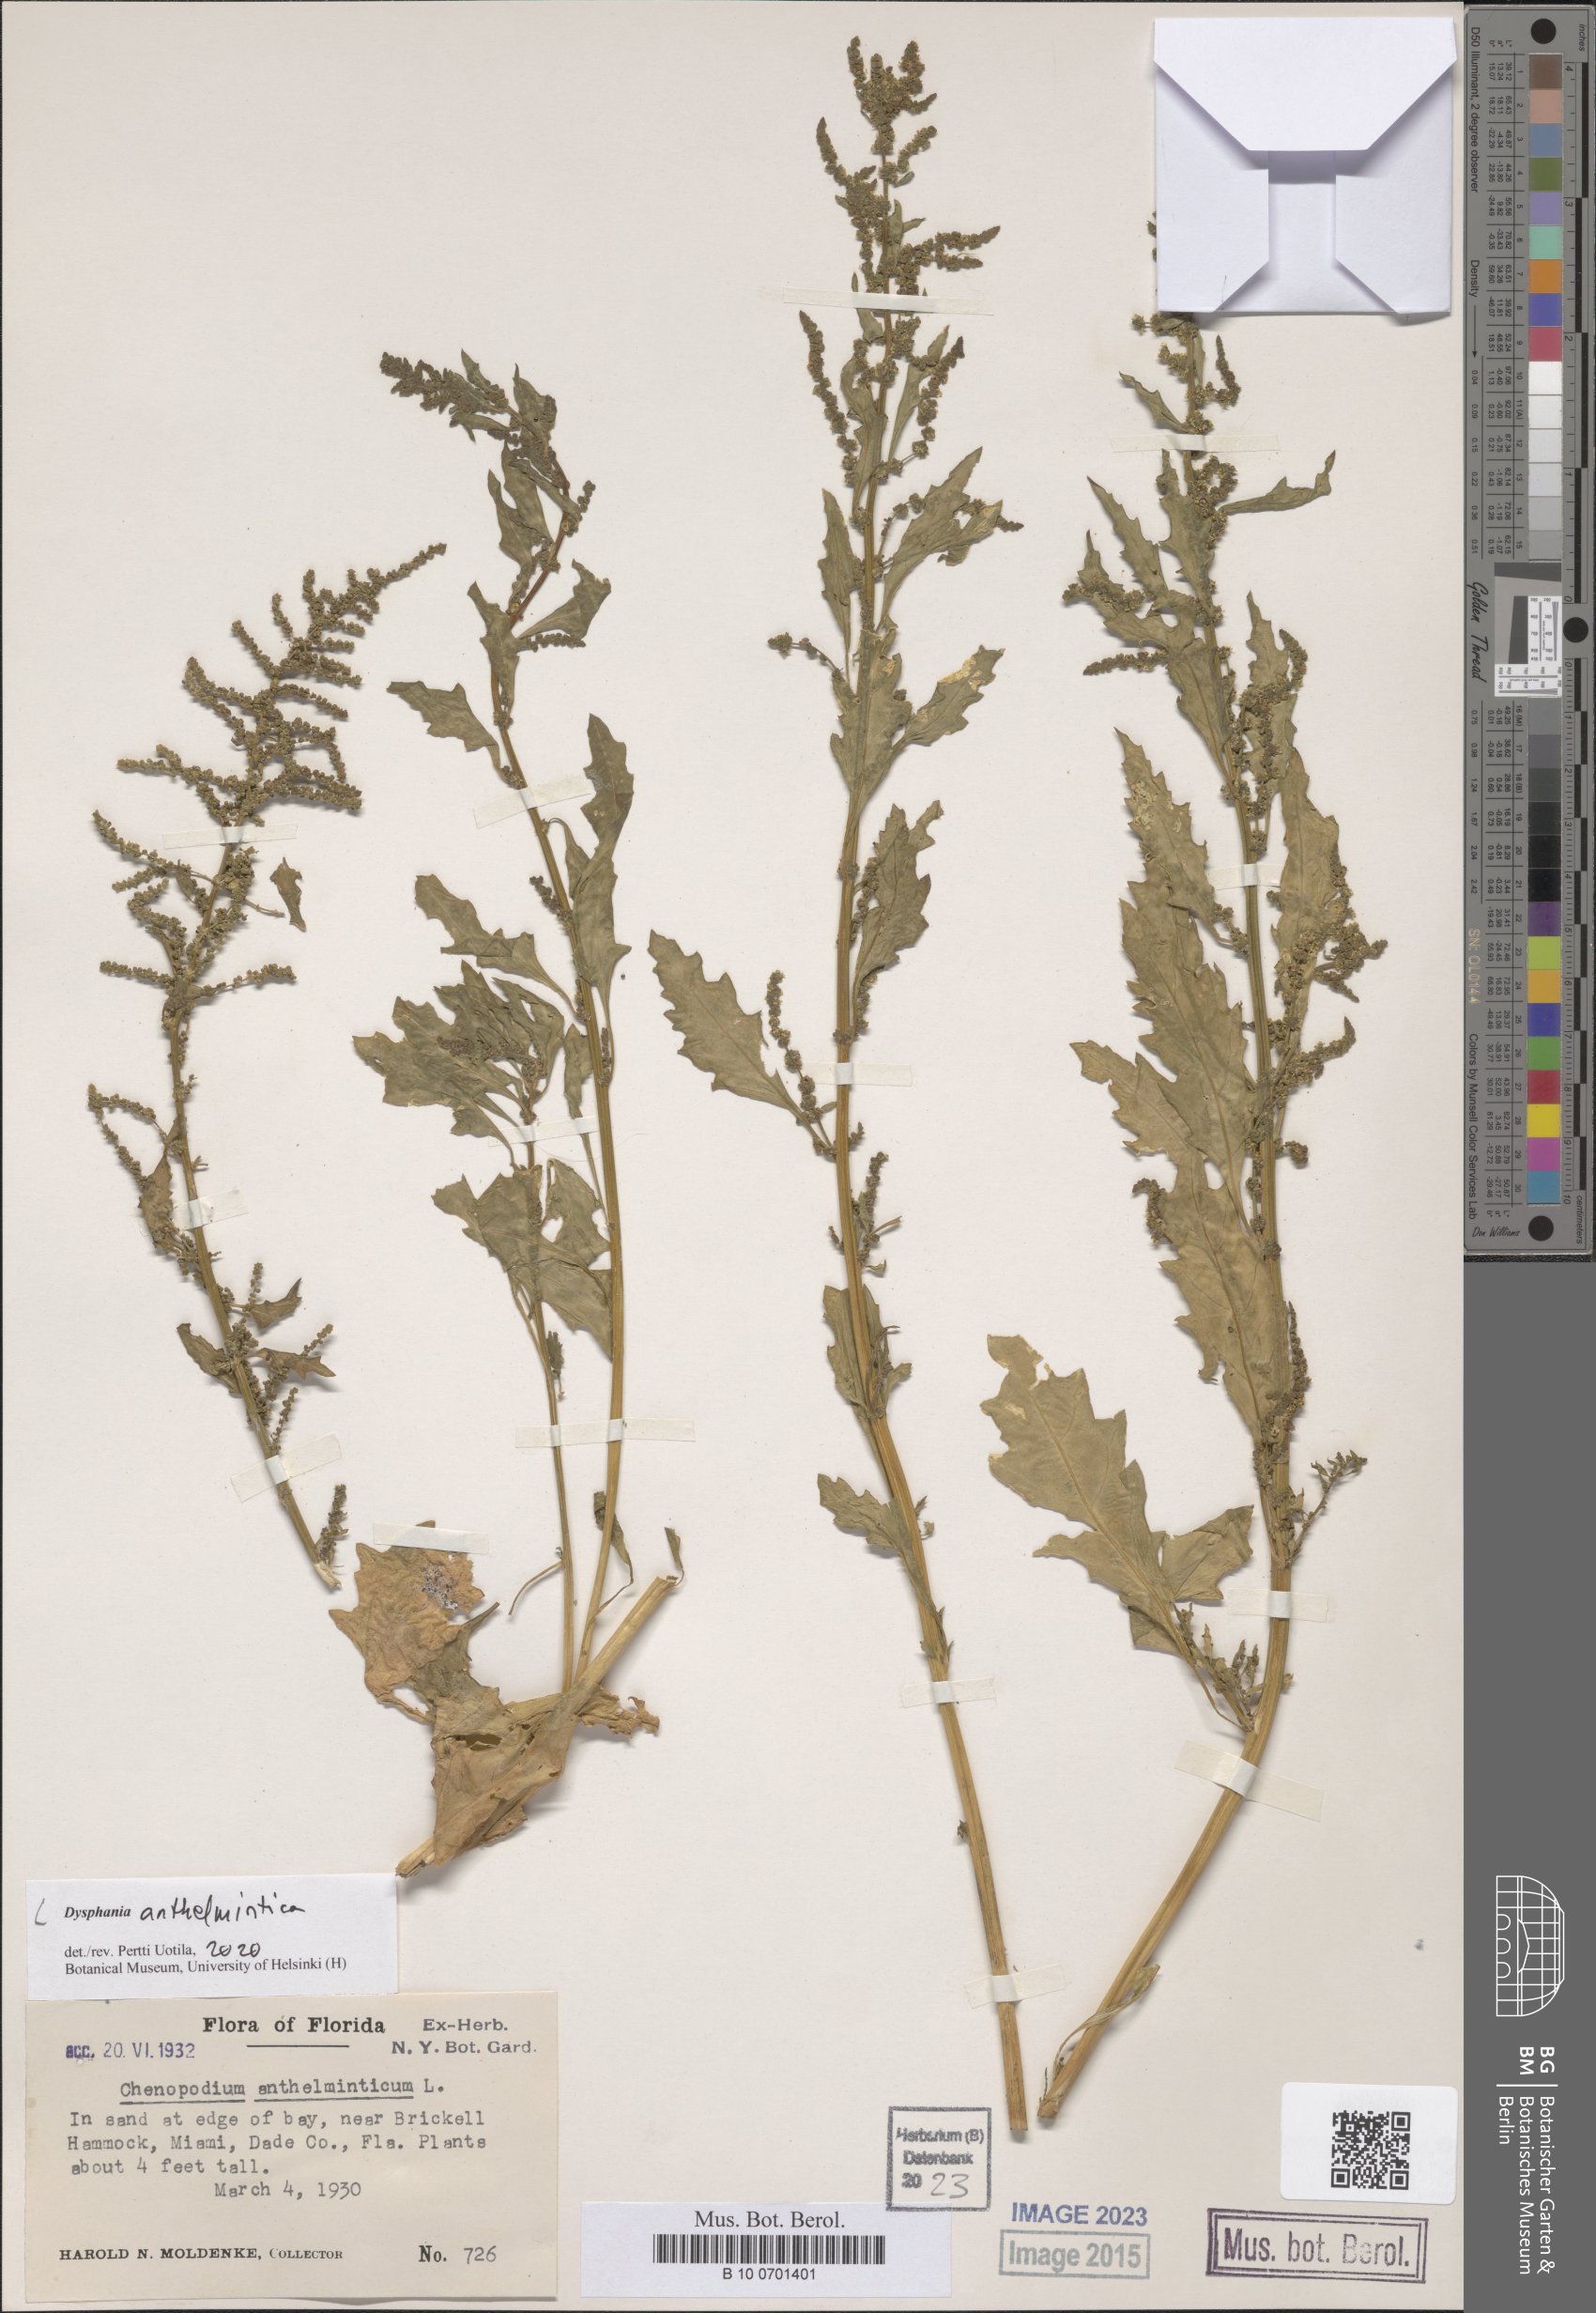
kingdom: Plantae
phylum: Tracheophyta
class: Magnoliopsida
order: Caryophyllales
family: Amaranthaceae
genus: Dysphania
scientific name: Dysphania anthelmintica
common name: Wormseed
